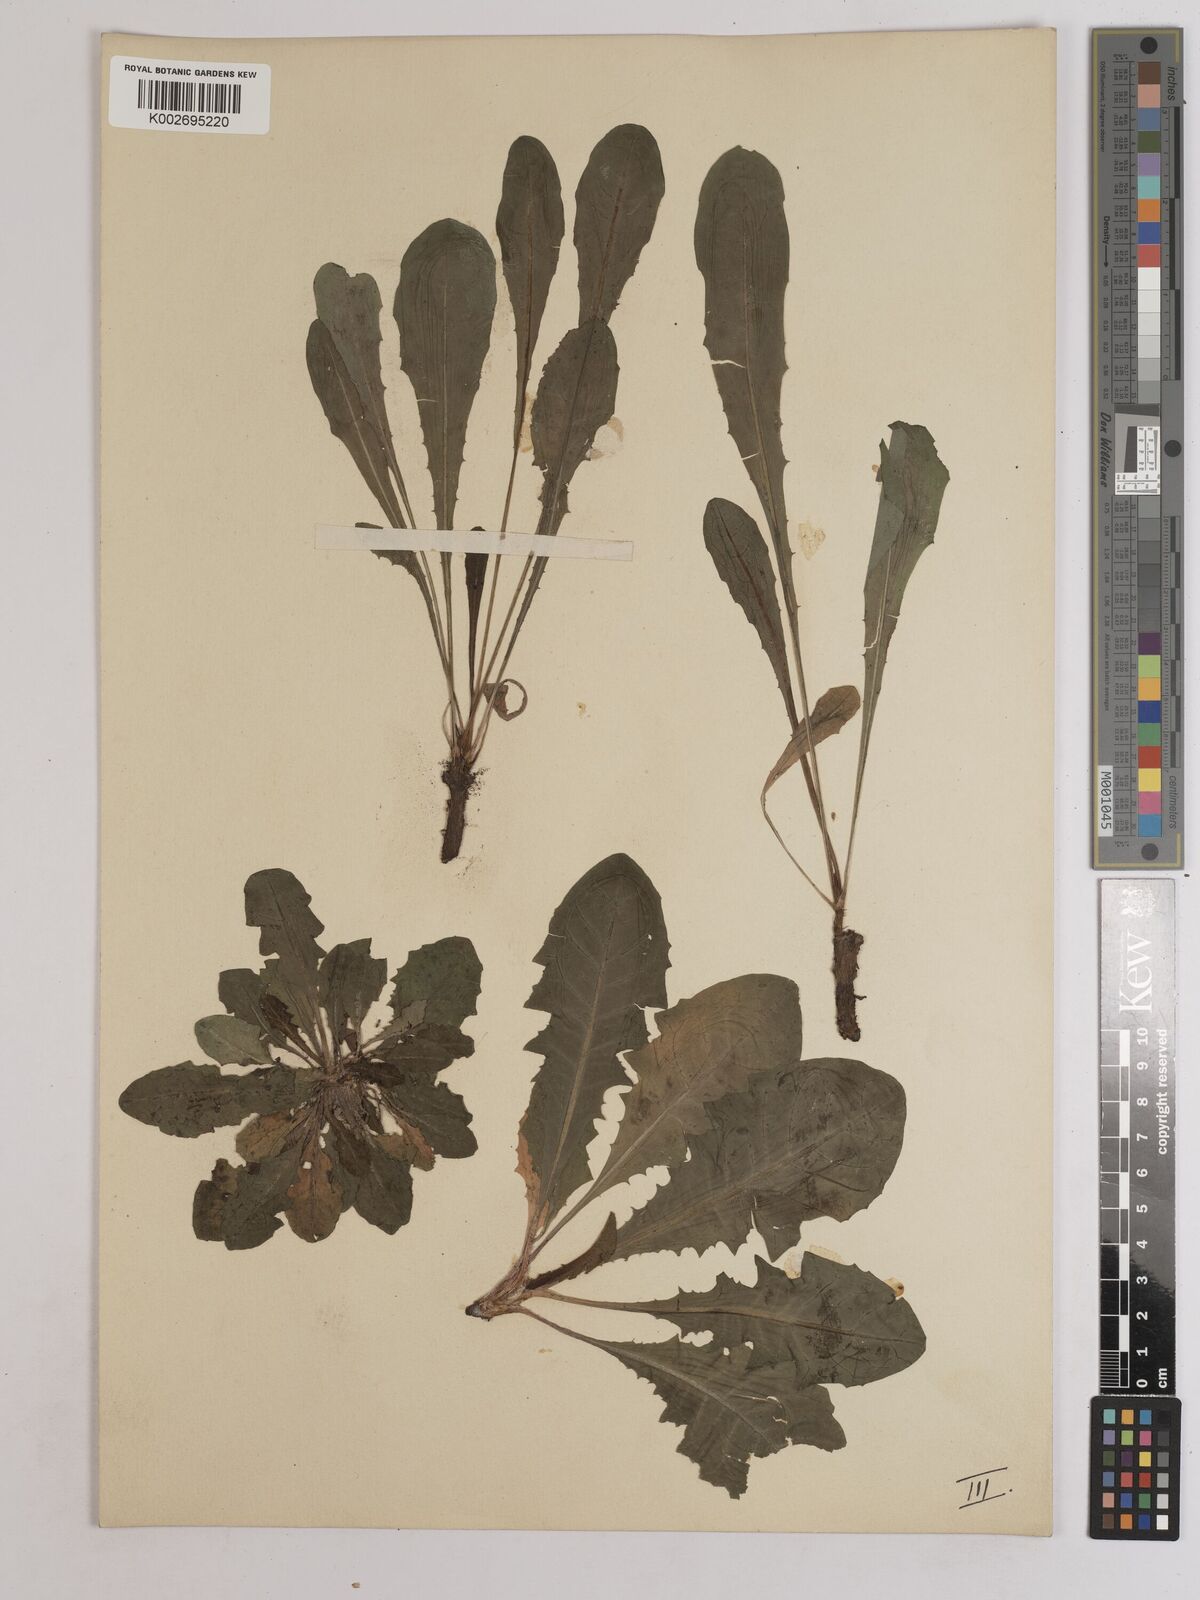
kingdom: Plantae
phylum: Tracheophyta
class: Magnoliopsida
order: Asterales
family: Asteraceae
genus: Taraxacum
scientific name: Taraxacum officinale
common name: Common dandelion
